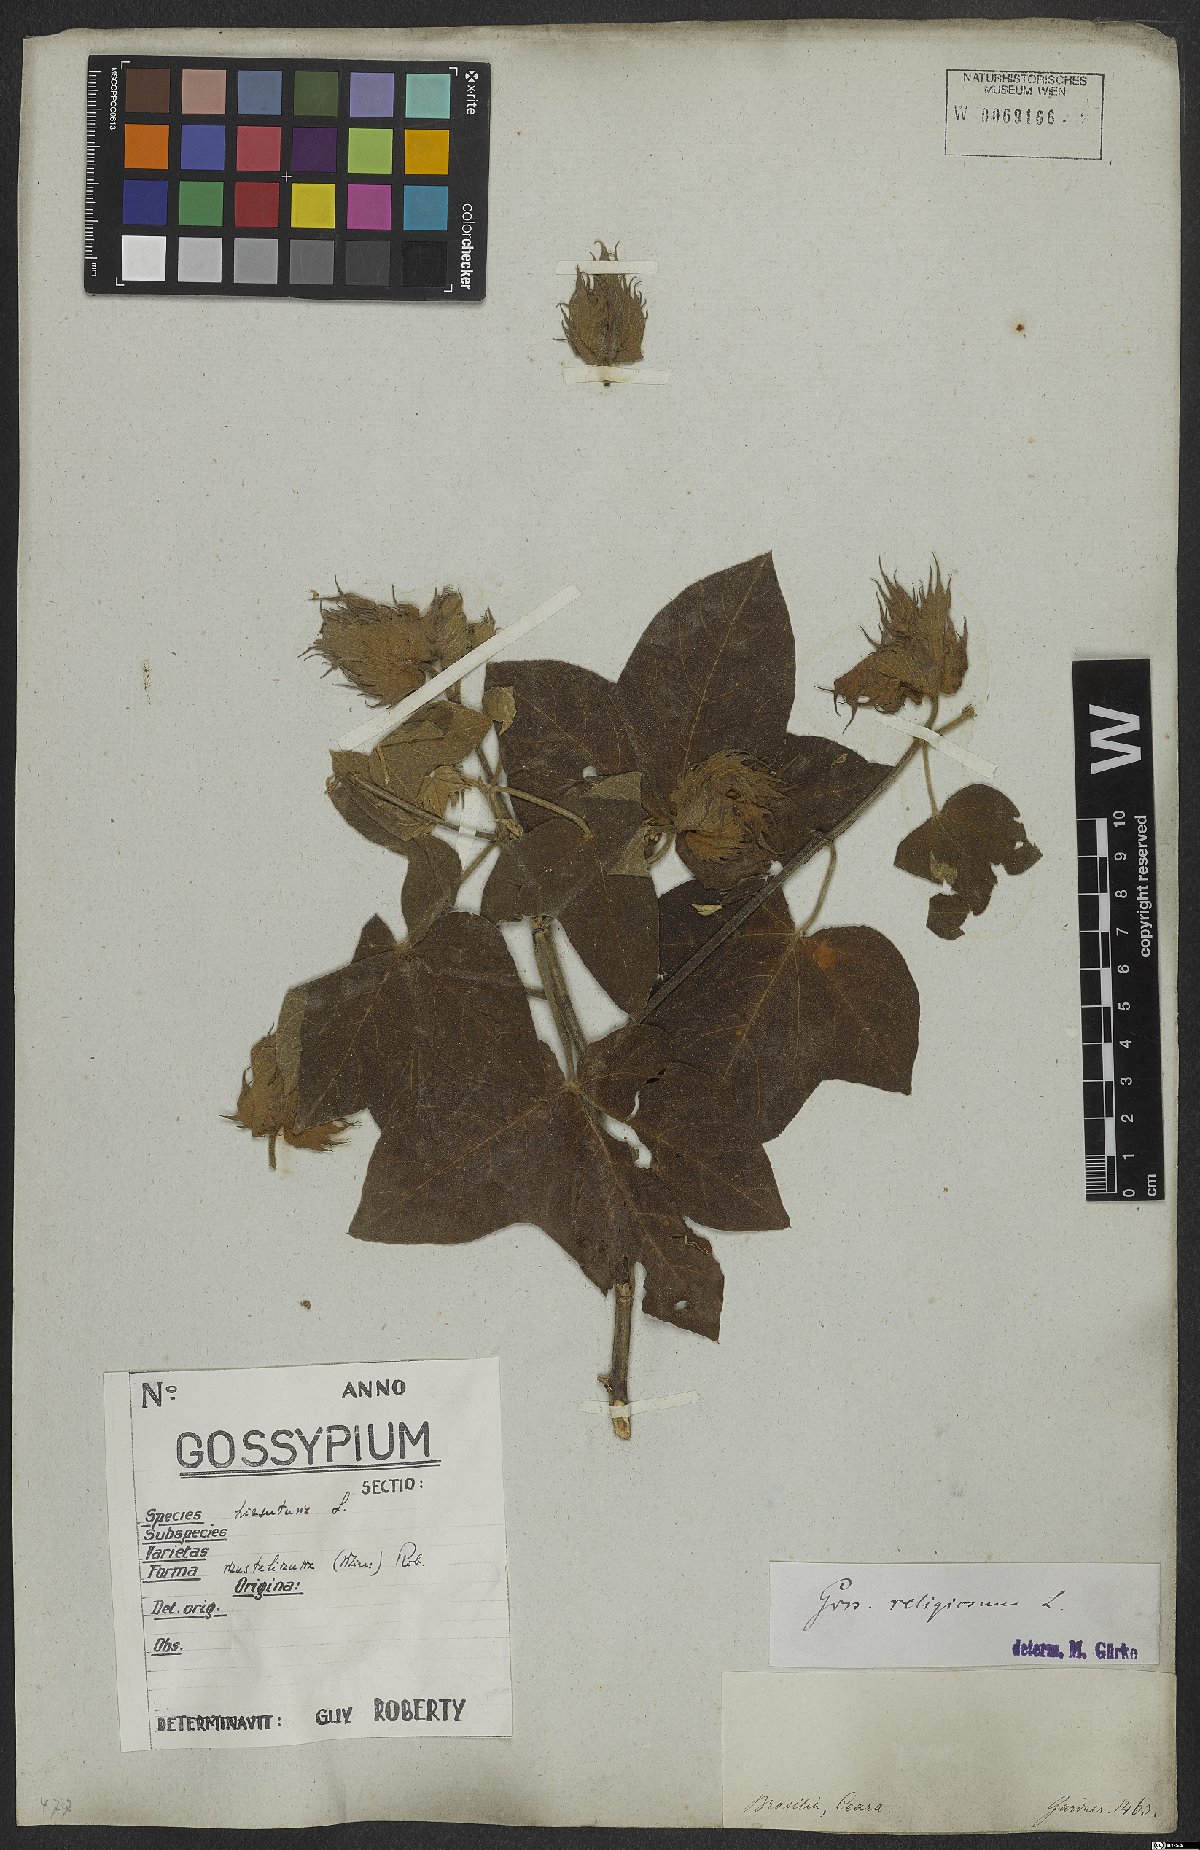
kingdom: Plantae
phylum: Tracheophyta
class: Magnoliopsida
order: Malvales
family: Malvaceae
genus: Gossypium
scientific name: Gossypium hirsutum
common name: Cotton
